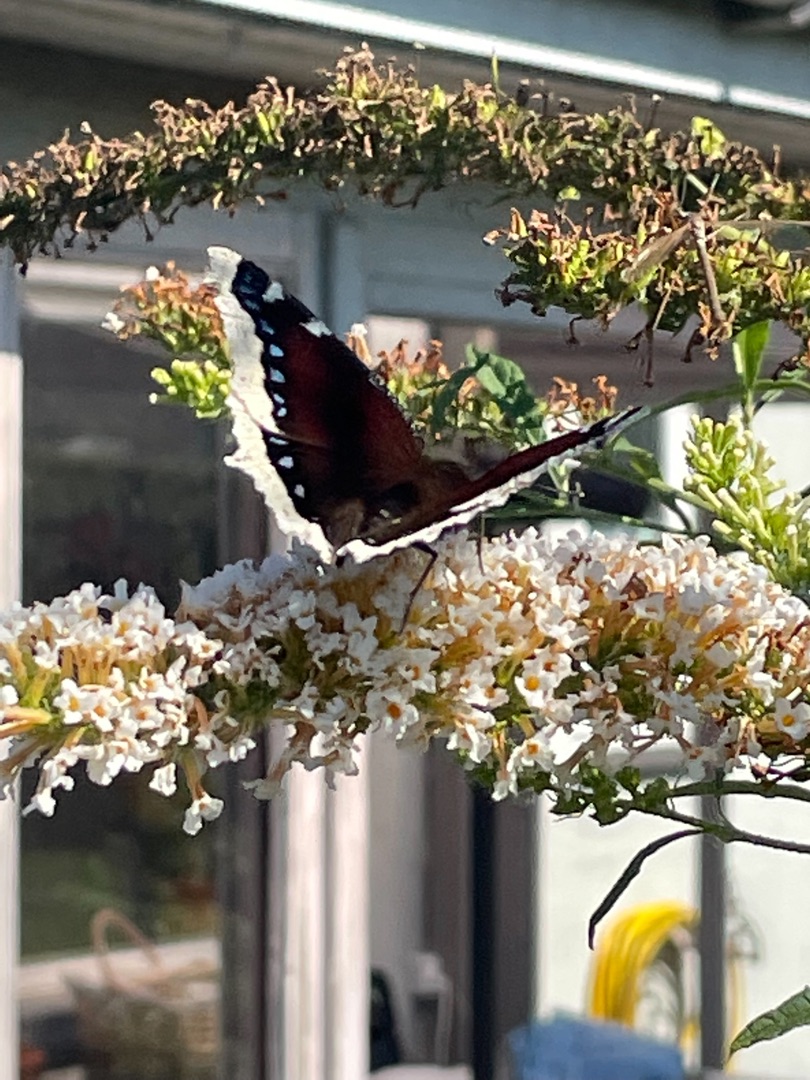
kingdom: Animalia
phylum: Arthropoda
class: Insecta
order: Lepidoptera
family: Nymphalidae
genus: Nymphalis
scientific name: Nymphalis antiopa
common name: Sørgekåbe
